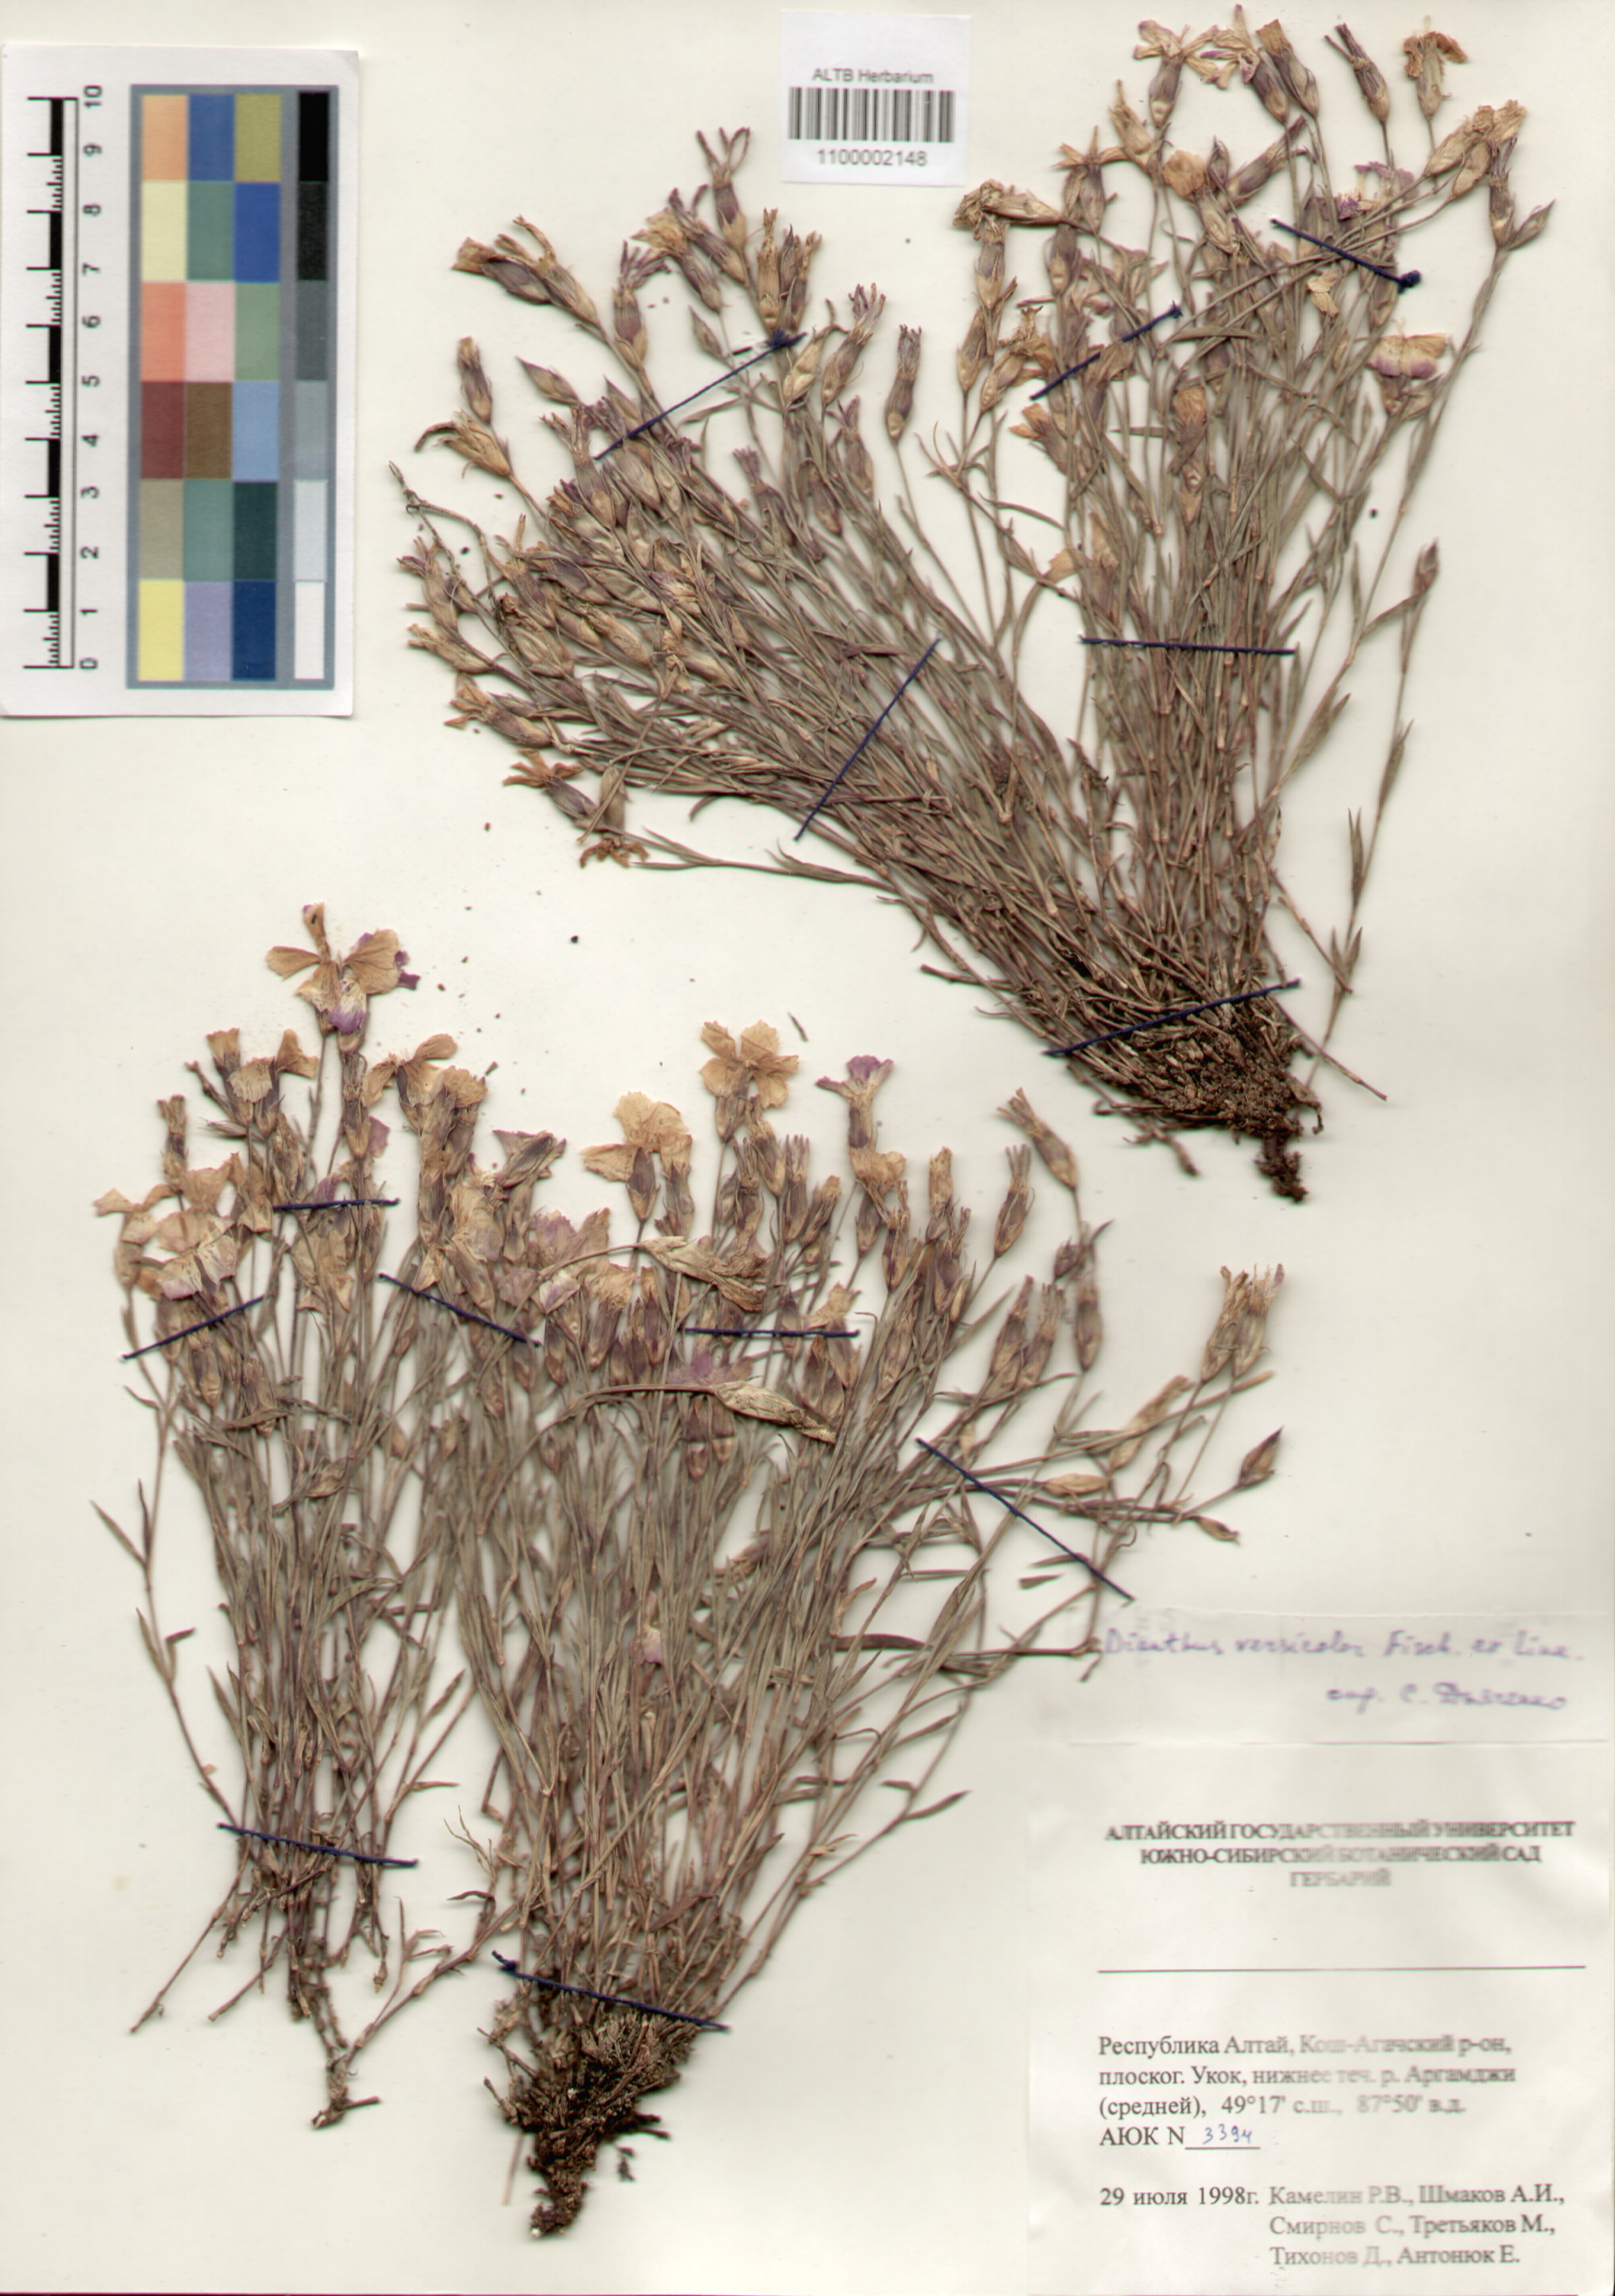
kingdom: Plantae
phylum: Tracheophyta
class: Magnoliopsida
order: Caryophyllales
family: Caryophyllaceae
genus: Dianthus
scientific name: Dianthus chinensis
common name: Rainbow pink
